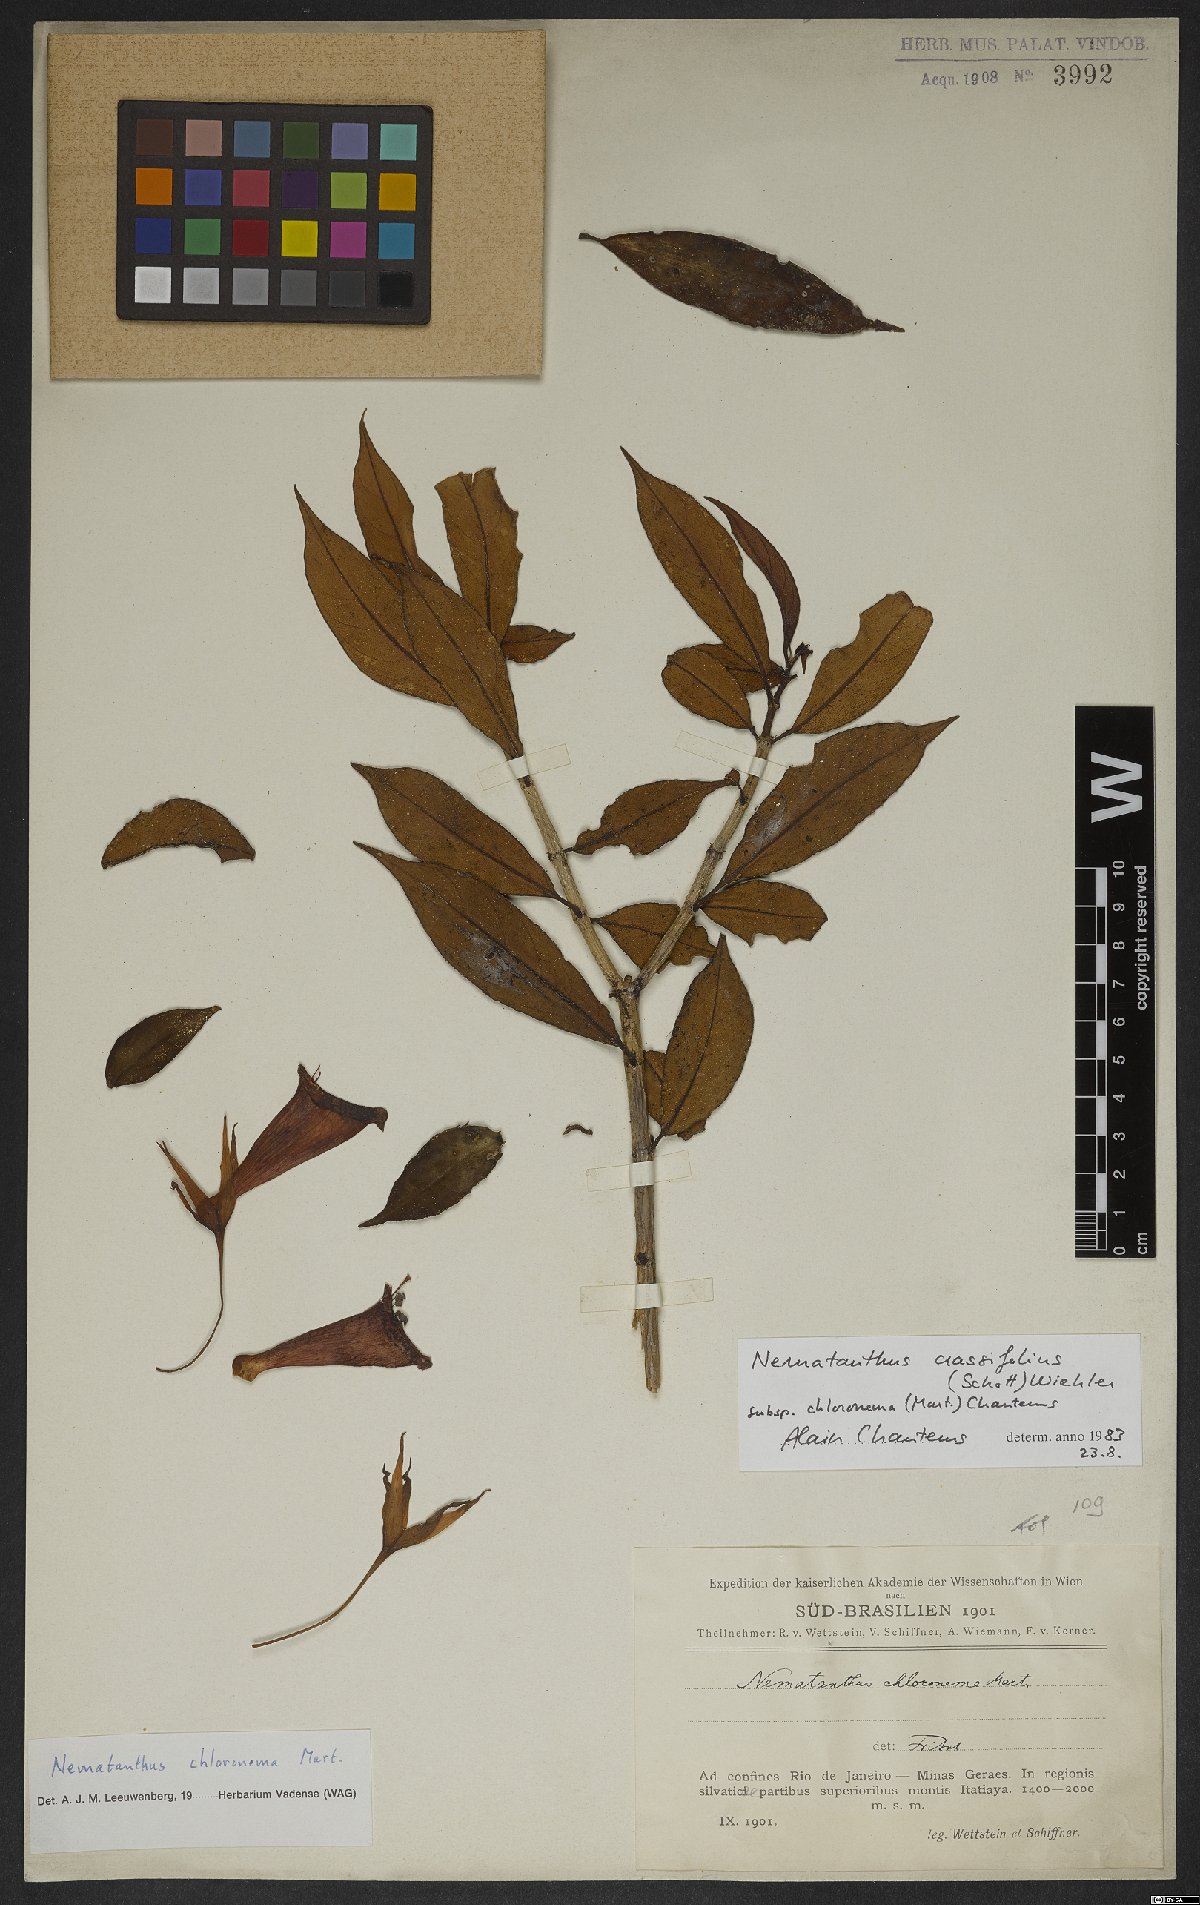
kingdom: Plantae
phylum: Tracheophyta
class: Magnoliopsida
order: Lamiales
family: Gesneriaceae
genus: Nematanthus
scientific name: Nematanthus crassifolius
